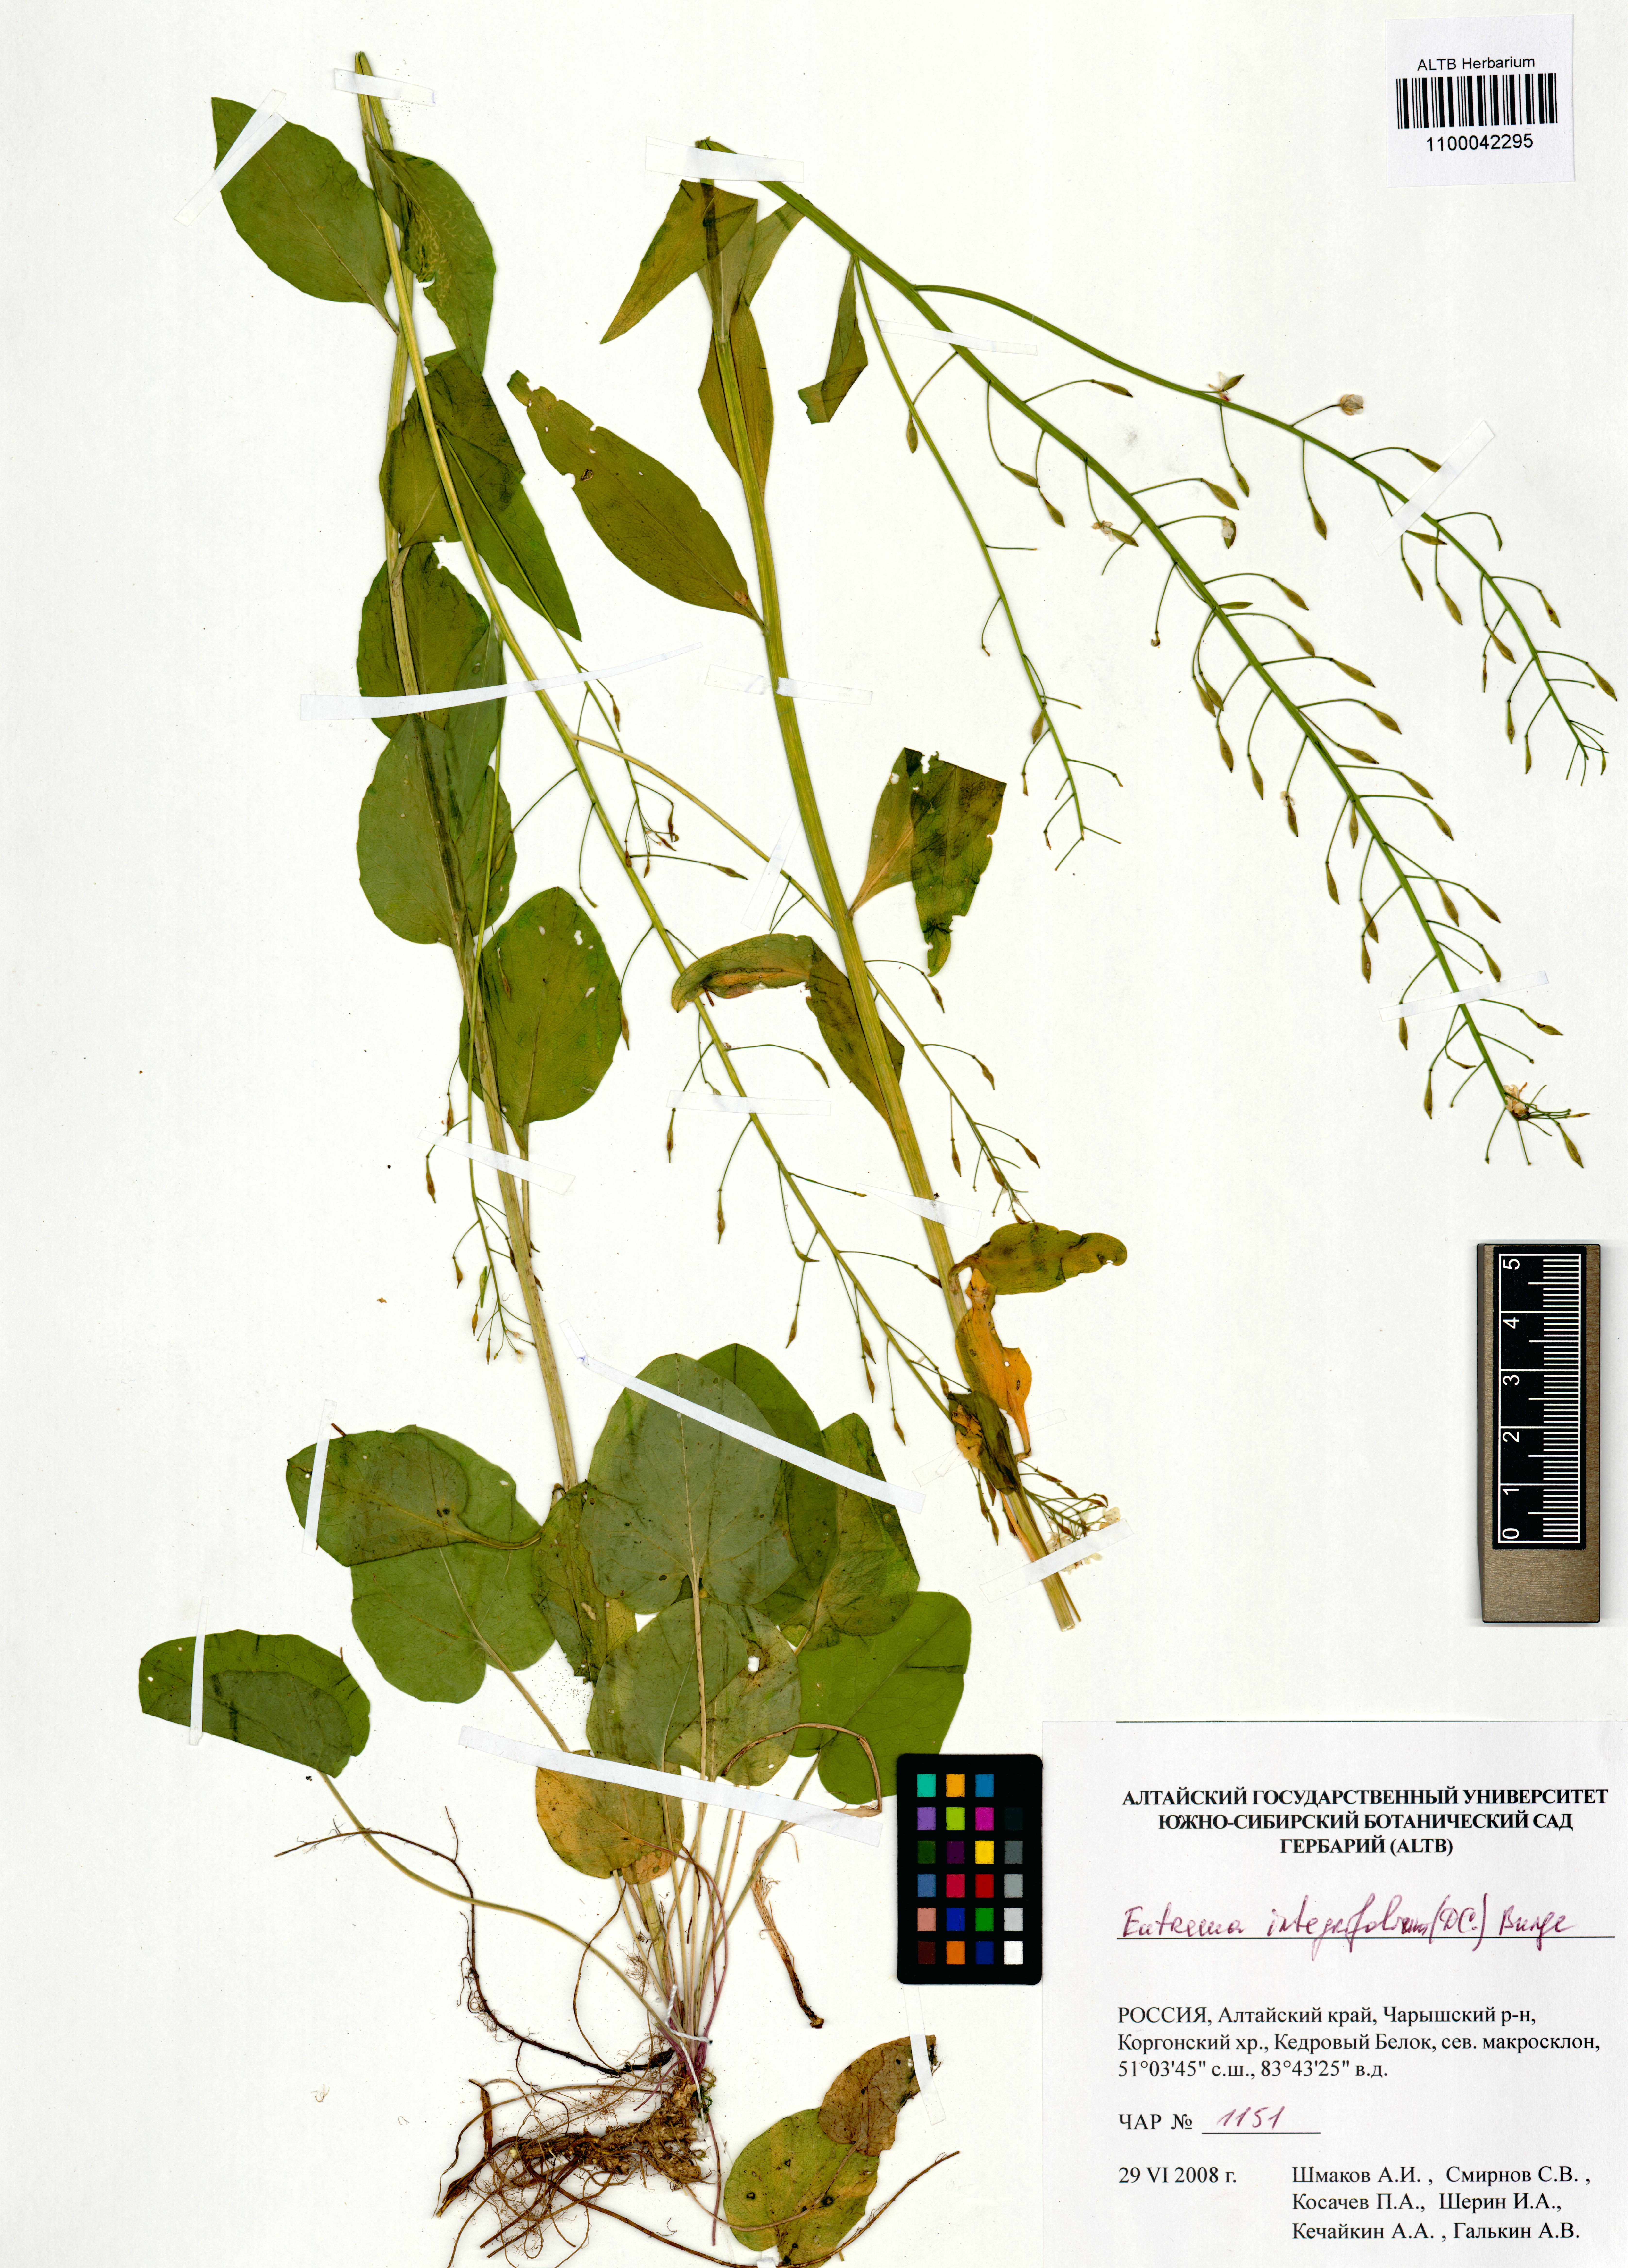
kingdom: Plantae
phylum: Tracheophyta
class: Magnoliopsida
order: Brassicales
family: Brassicaceae
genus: Eutrema
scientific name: Eutrema integrifolium
